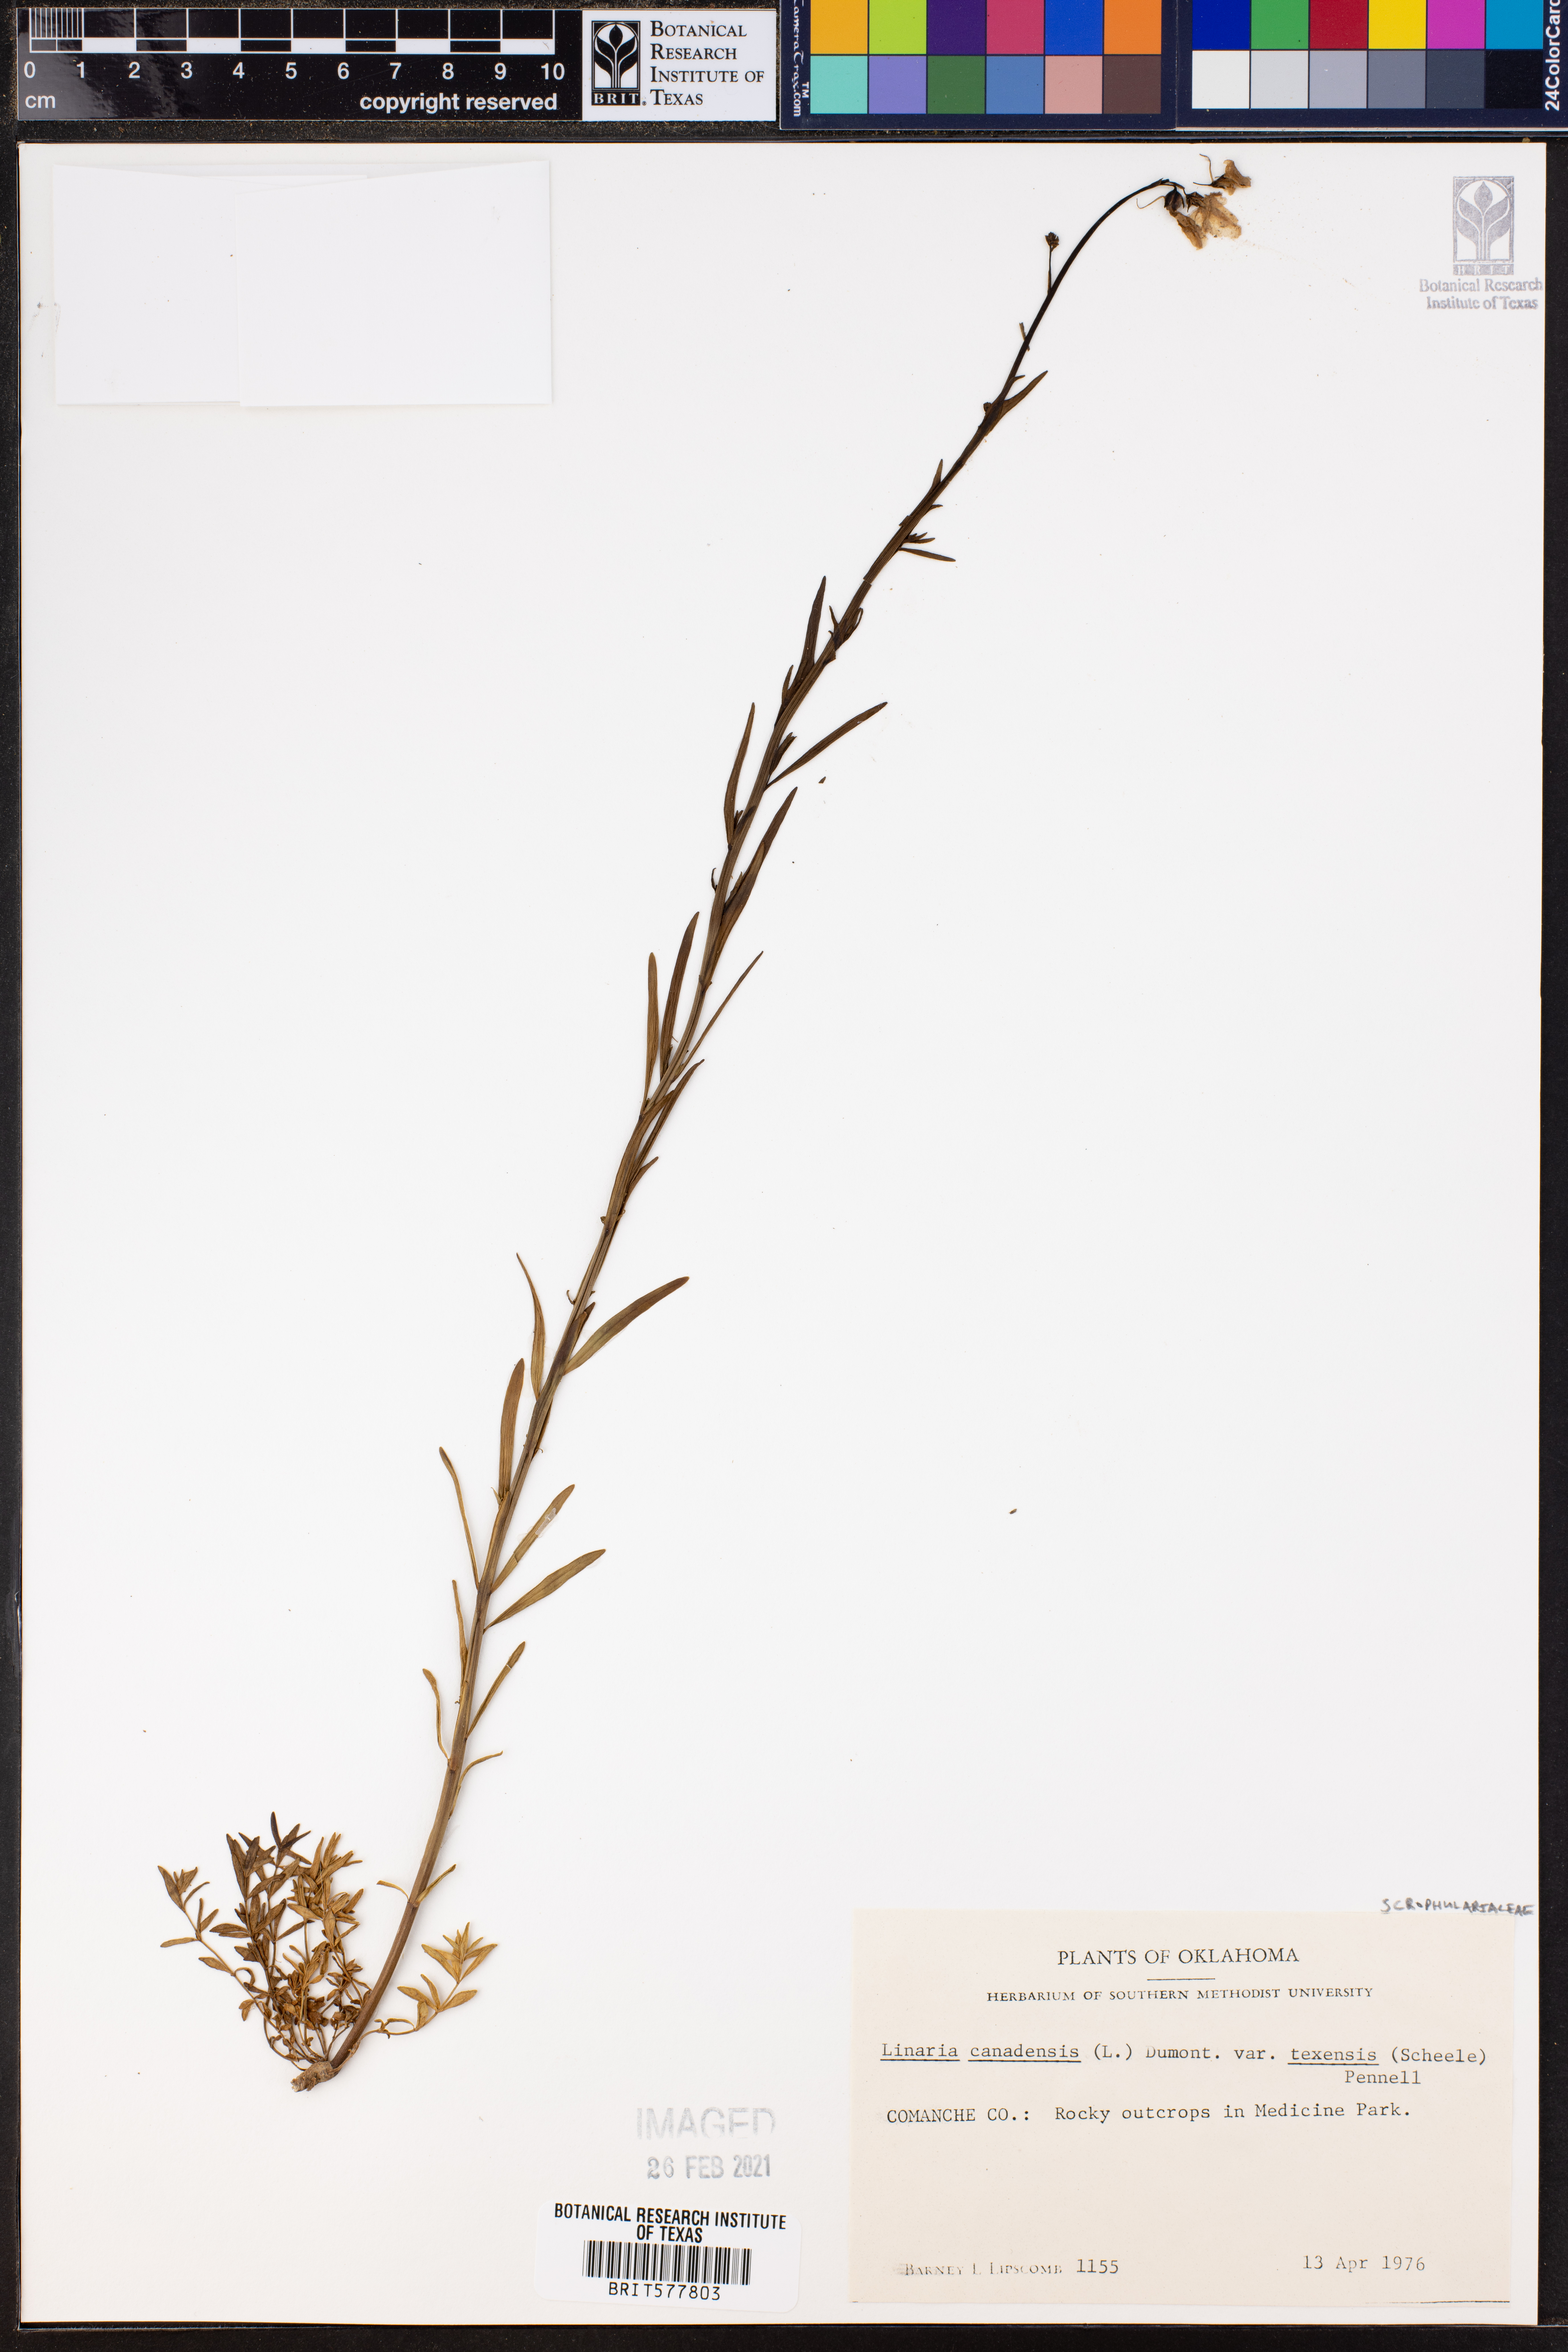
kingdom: Plantae
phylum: Tracheophyta
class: Magnoliopsida
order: Lamiales
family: Plantaginaceae
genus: Nuttallanthus
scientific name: Nuttallanthus texanus
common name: Texas toadflax
